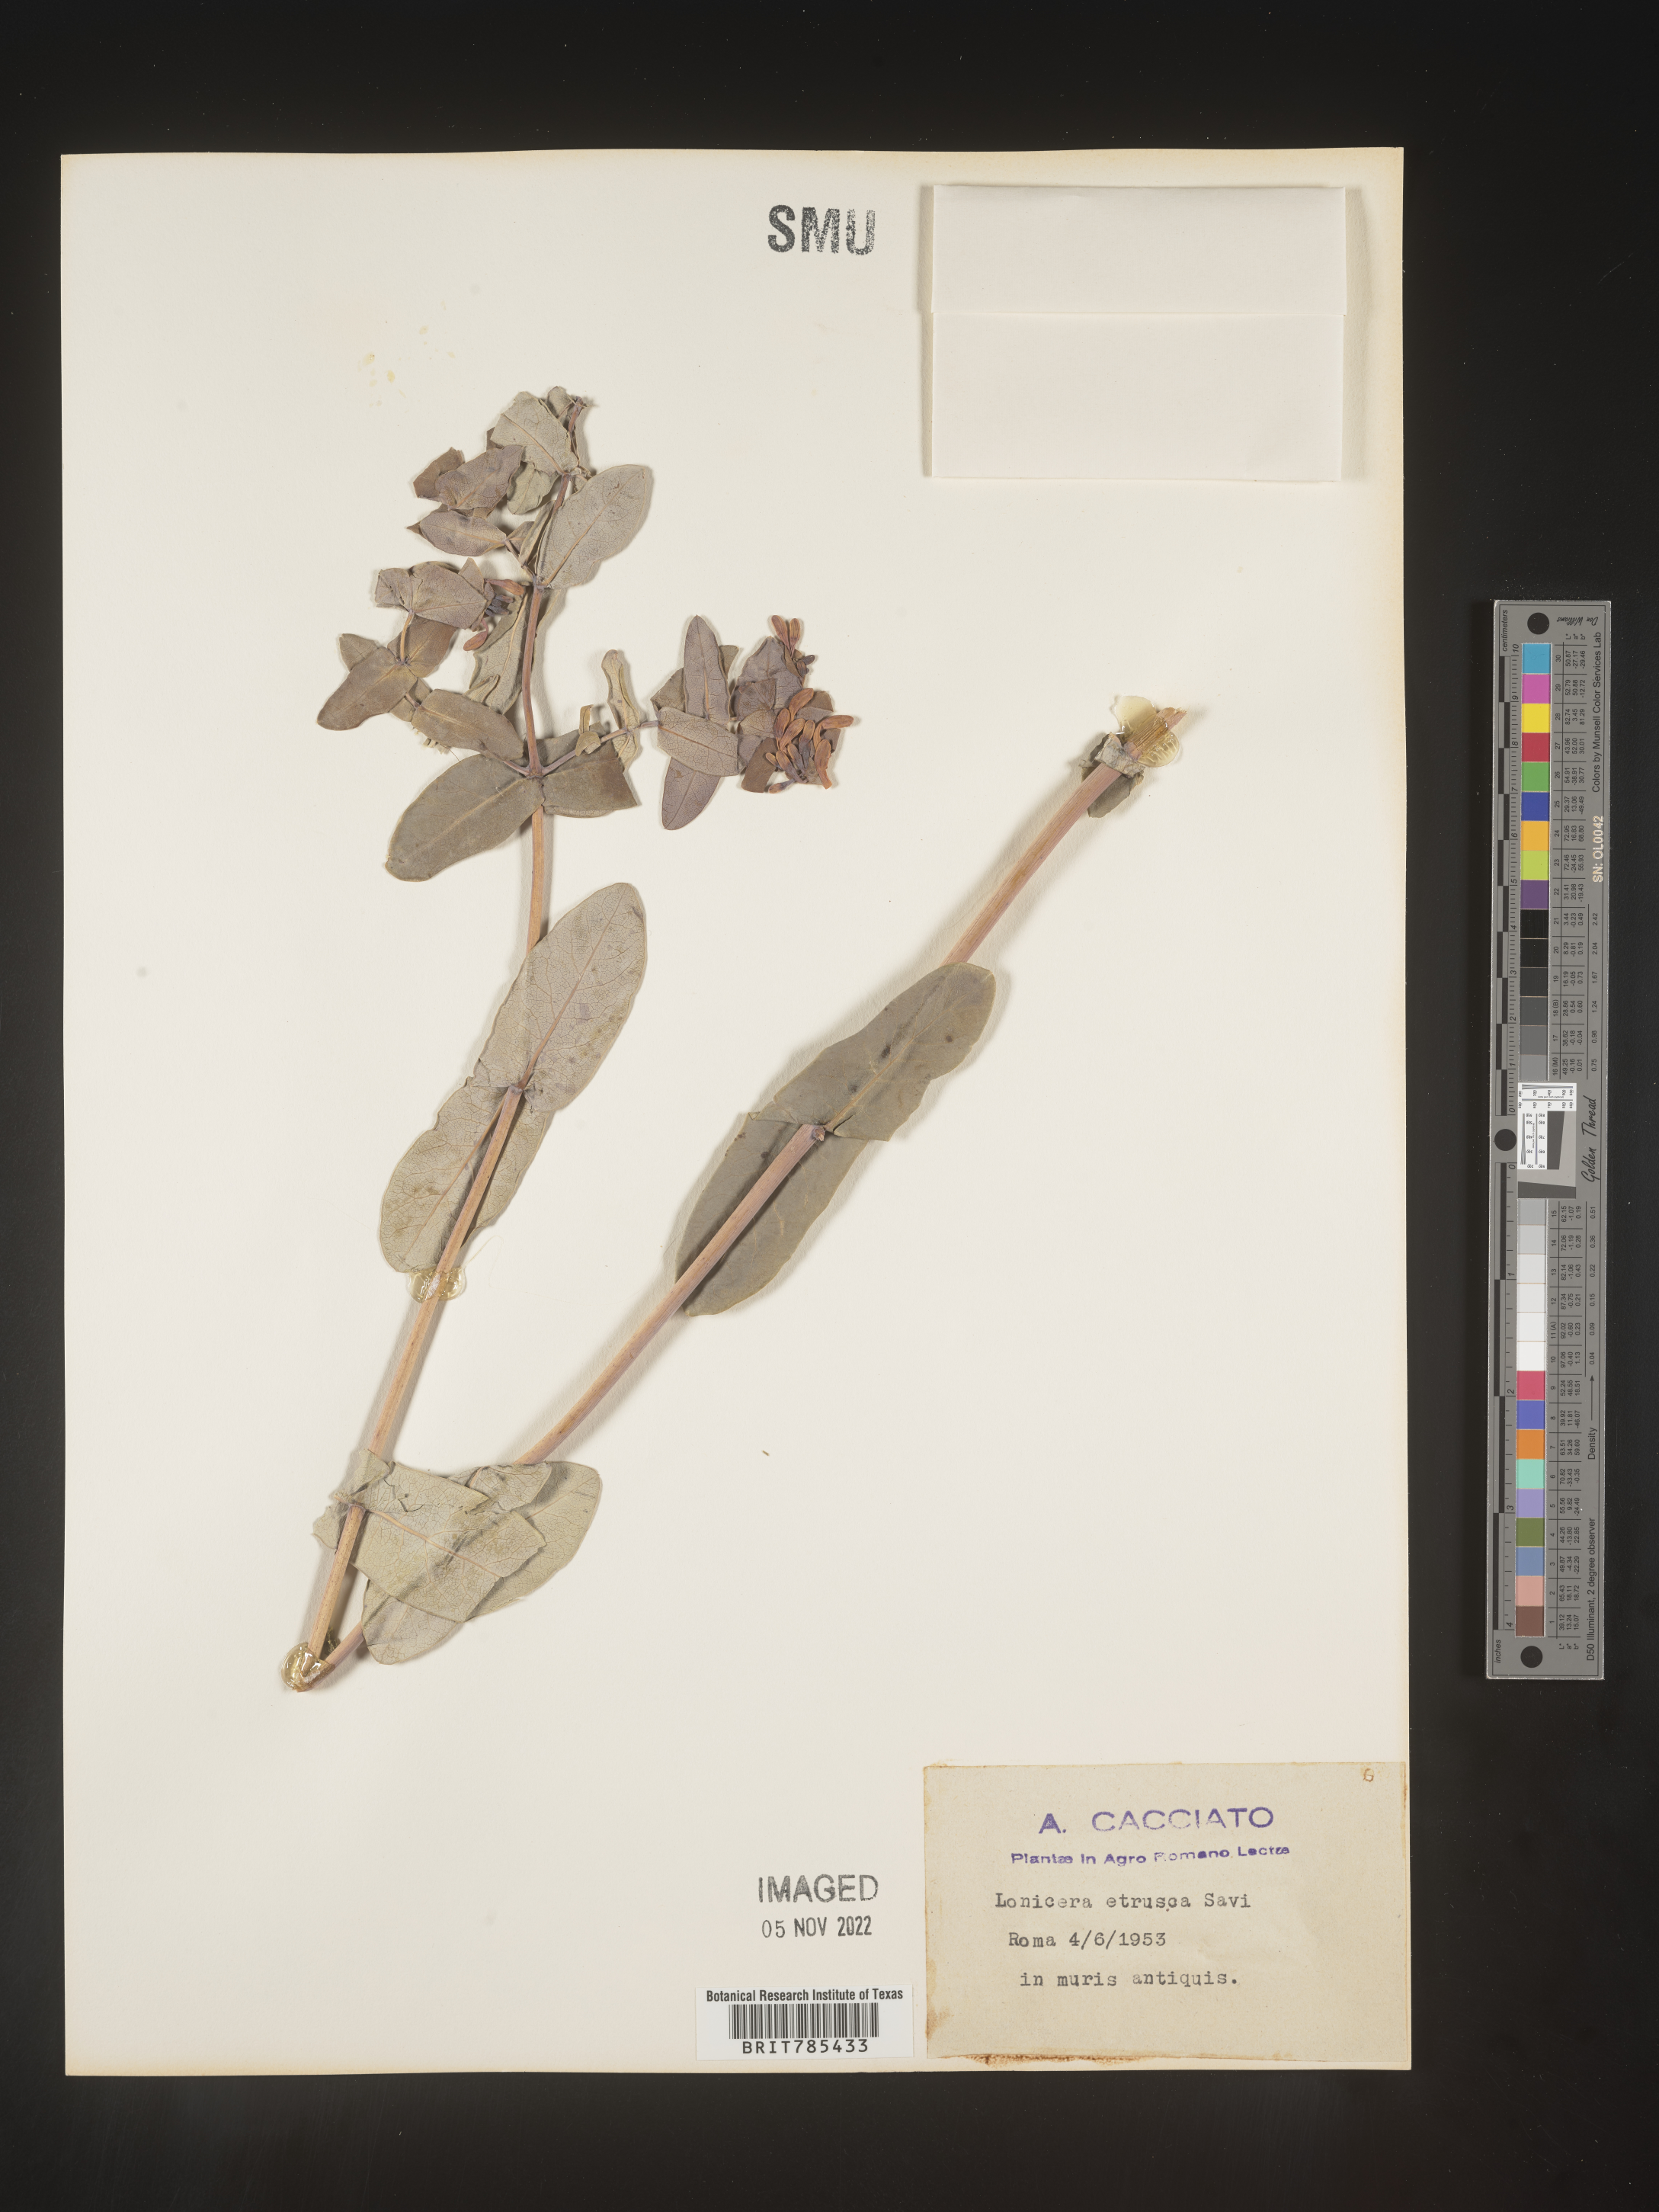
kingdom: Plantae
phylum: Tracheophyta
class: Magnoliopsida
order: Dipsacales
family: Caprifoliaceae
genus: Lonicera
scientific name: Lonicera
